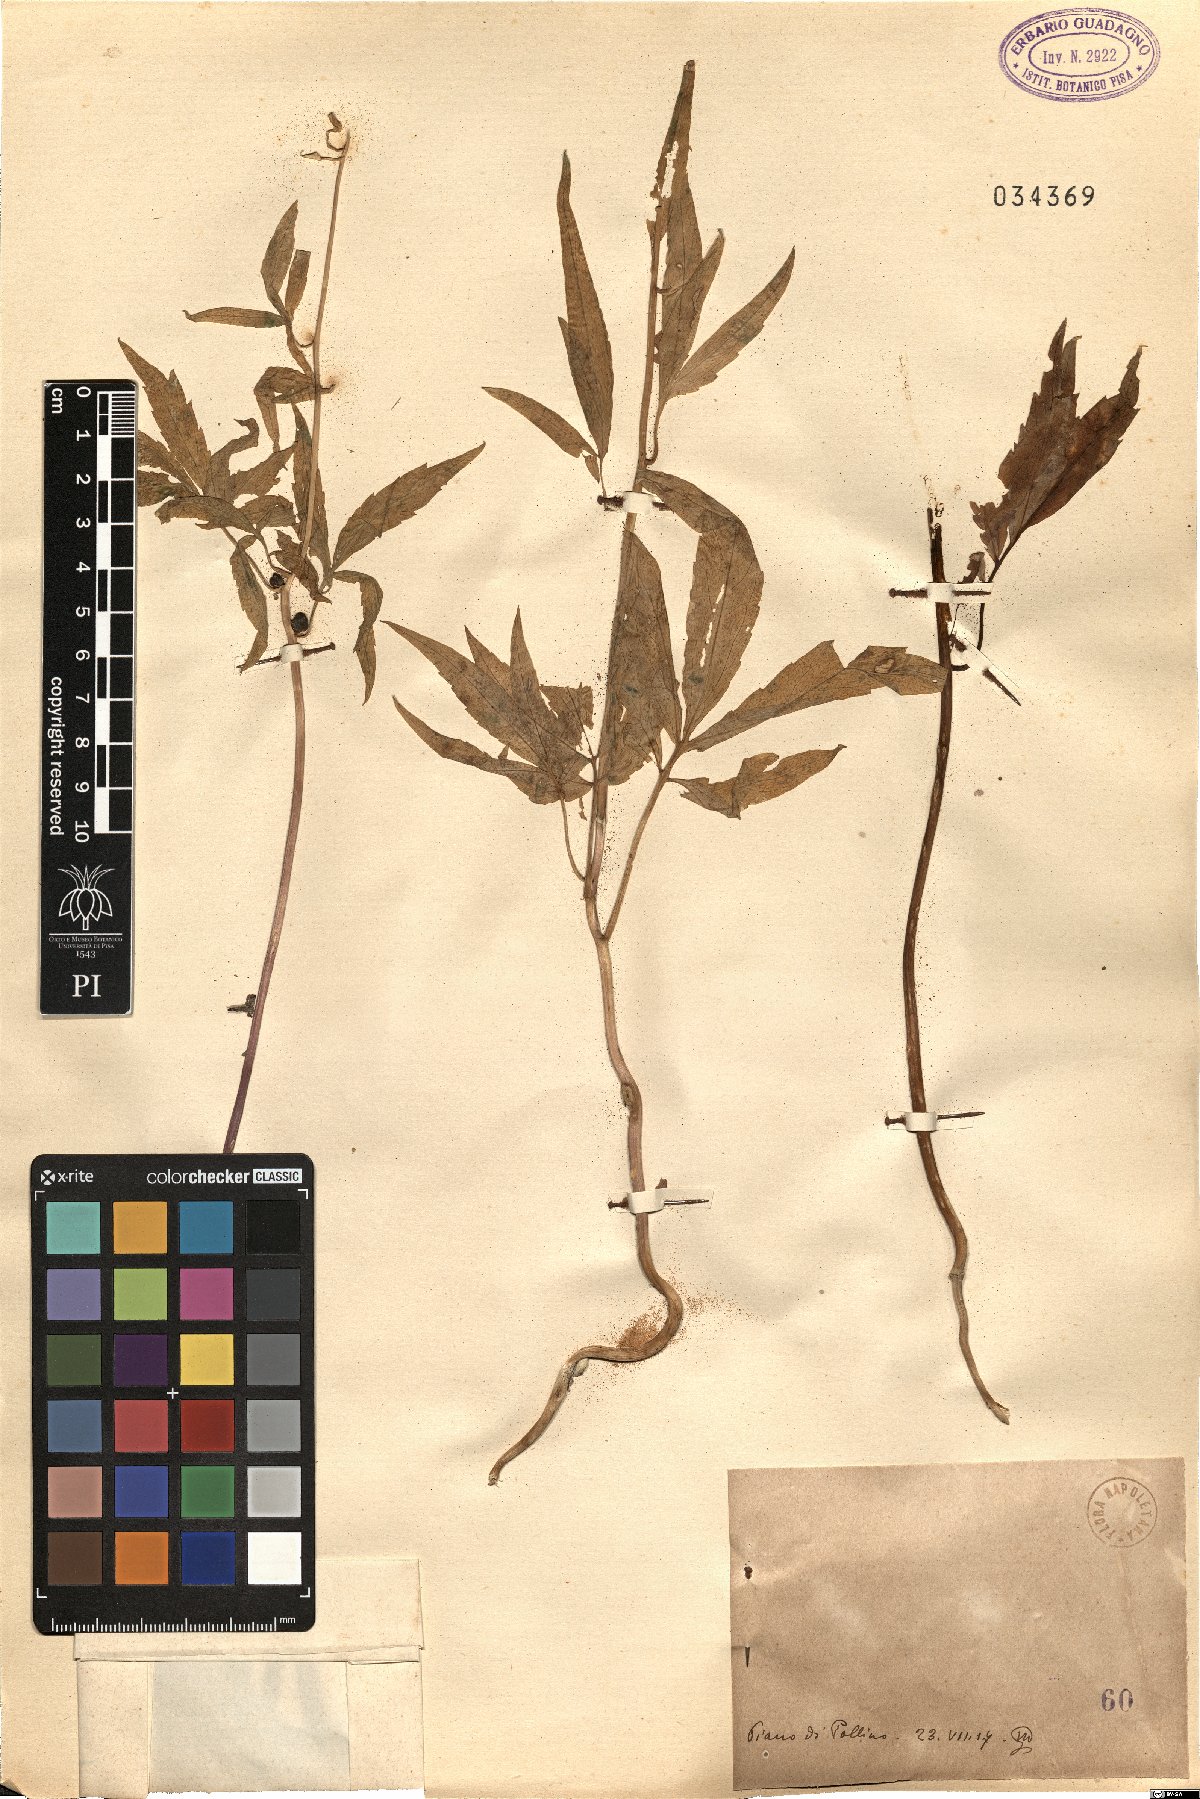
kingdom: Animalia
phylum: Mollusca
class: Bivalvia
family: Protocuspidariidae
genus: Dentaria
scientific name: Dentaria
